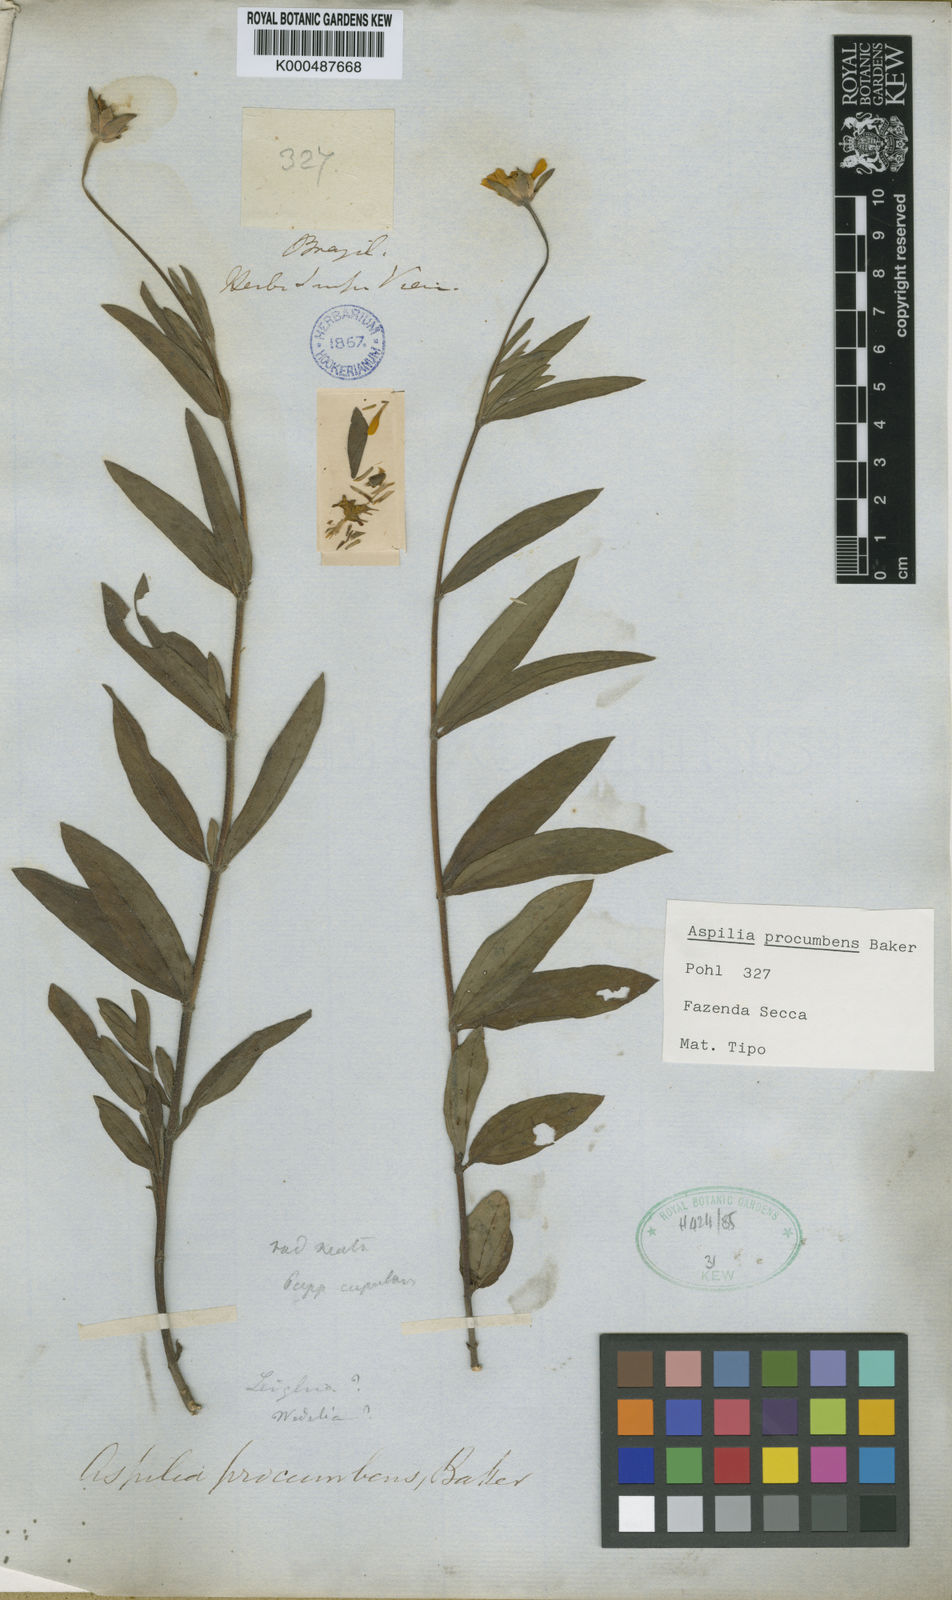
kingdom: Plantae
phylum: Tracheophyta
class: Magnoliopsida
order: Asterales
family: Asteraceae
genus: Wedelia
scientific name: Wedelia procumbens
